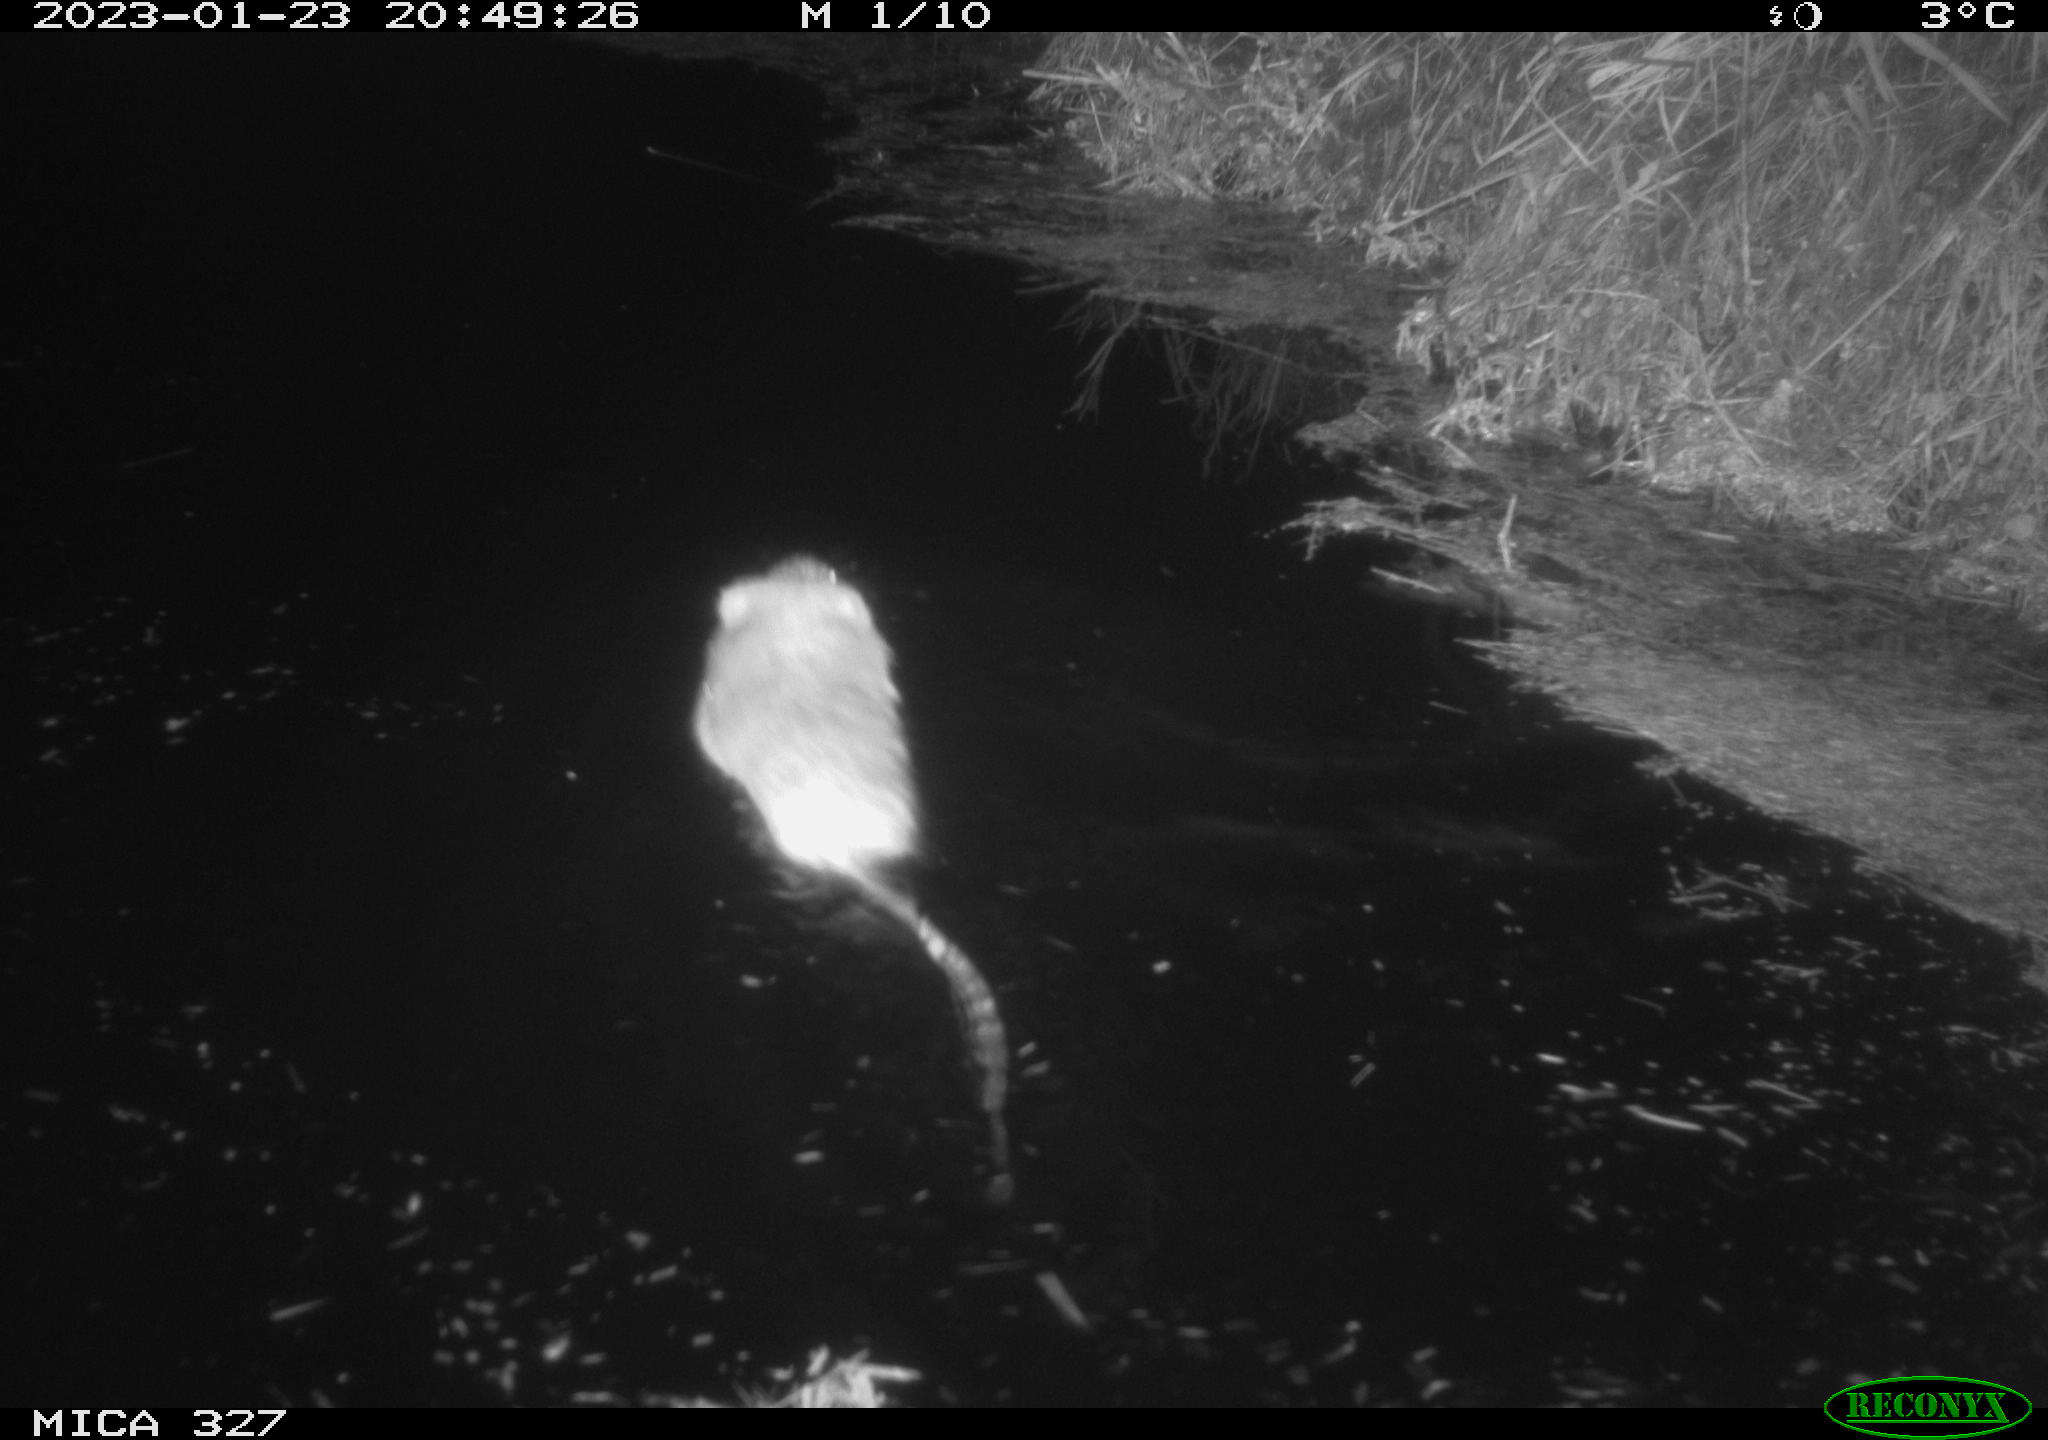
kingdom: Animalia
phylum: Chordata
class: Mammalia
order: Rodentia
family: Cricetidae
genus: Ondatra
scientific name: Ondatra zibethicus
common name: Muskrat
